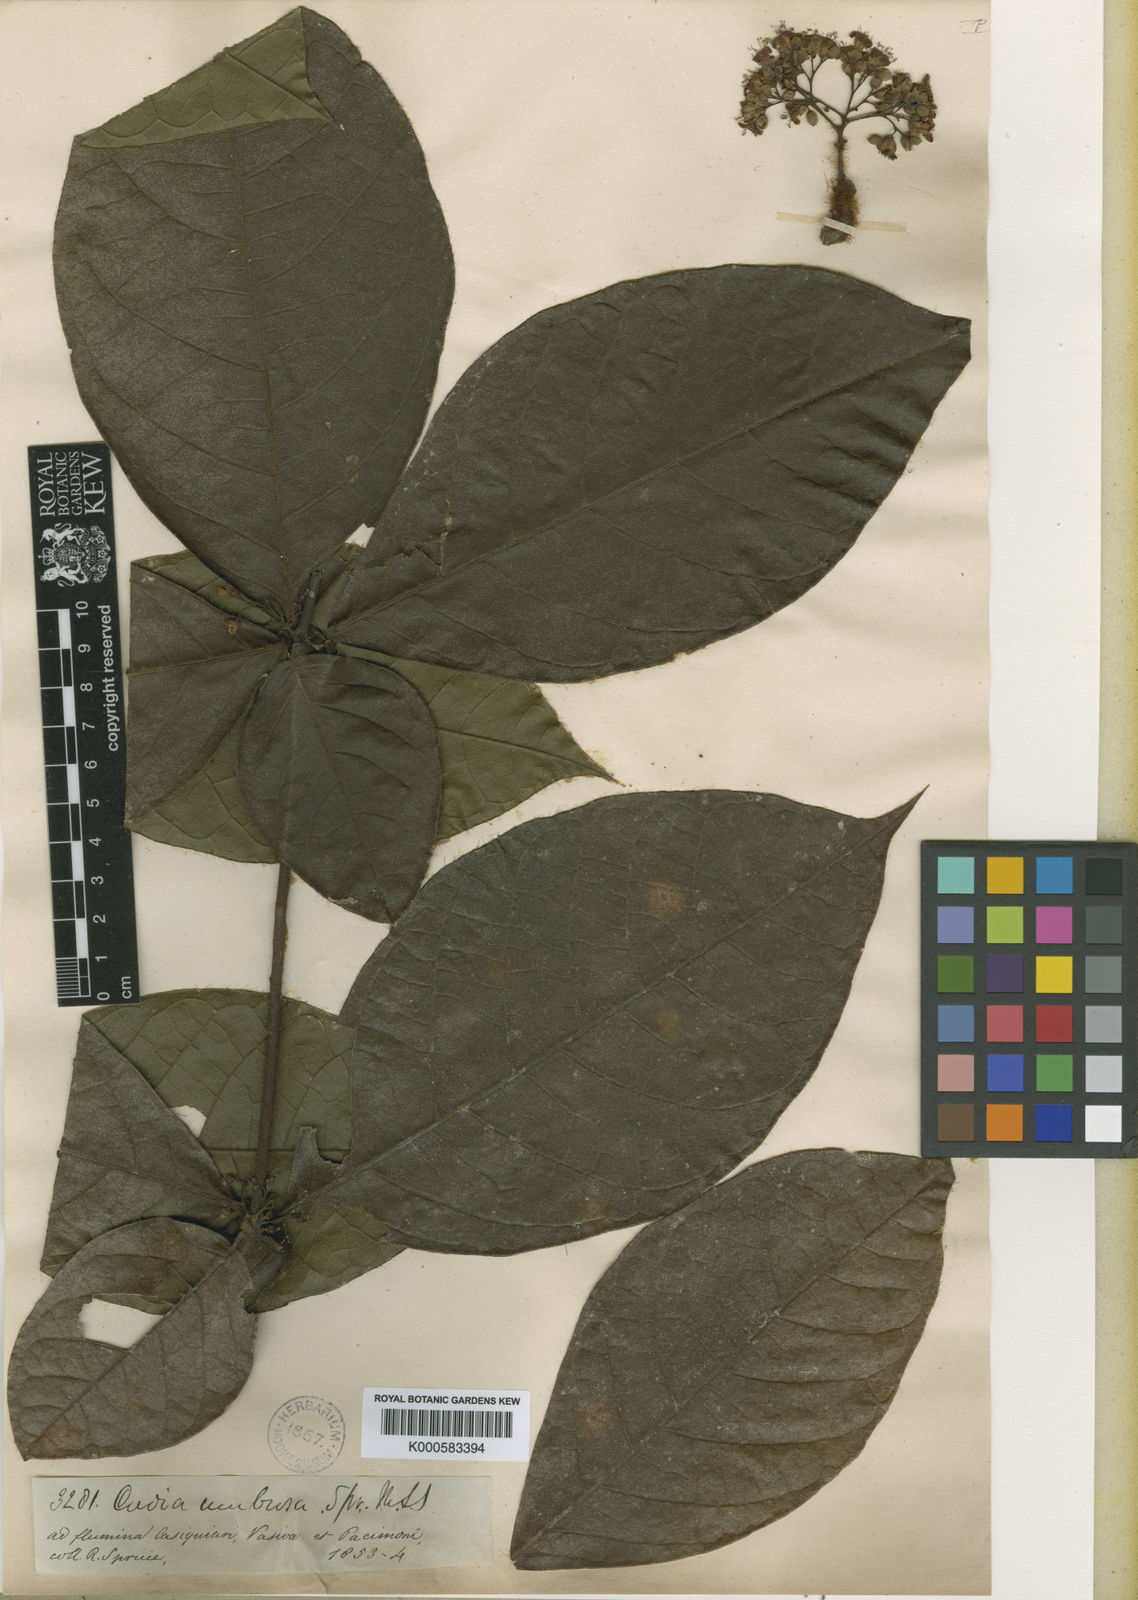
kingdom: Plantae
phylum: Tracheophyta
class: Magnoliopsida
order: Boraginales
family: Cordiaceae
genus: Cordia
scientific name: Cordia nodosa
